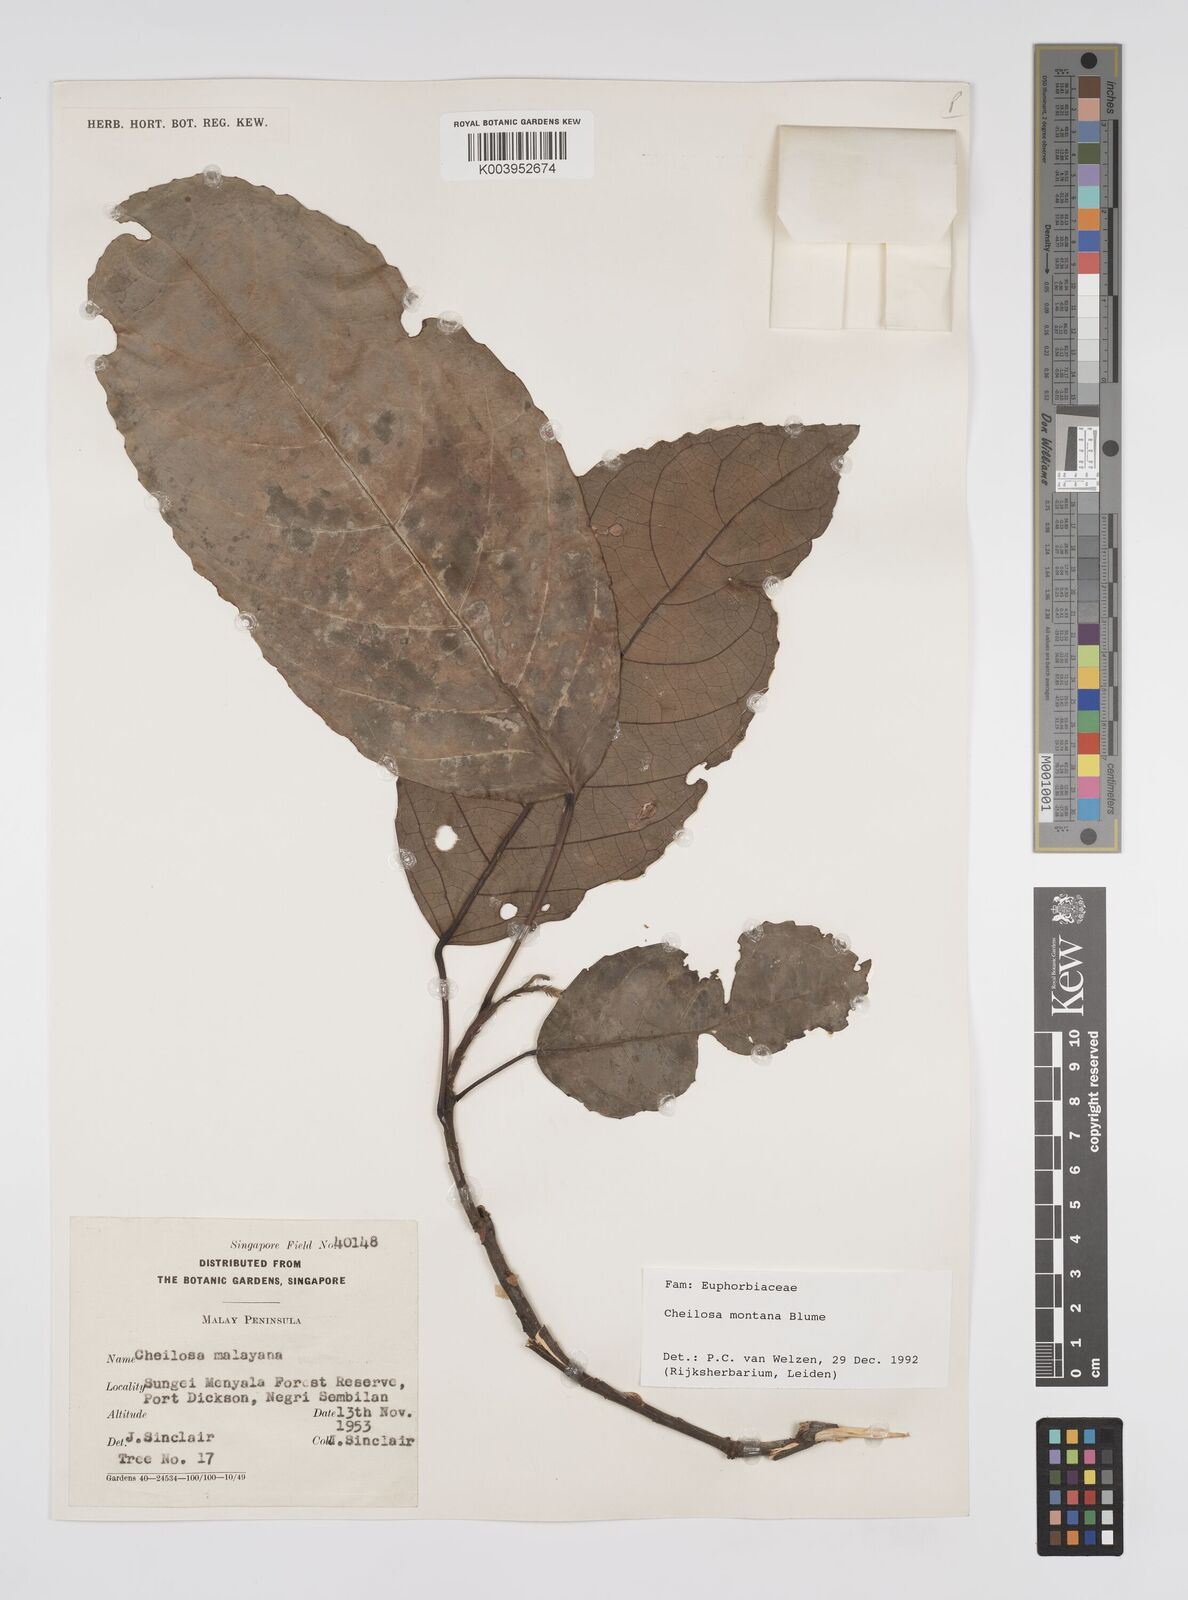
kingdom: Plantae
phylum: Tracheophyta
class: Magnoliopsida
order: Malpighiales
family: Euphorbiaceae
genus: Cheilosa
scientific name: Cheilosa montana
